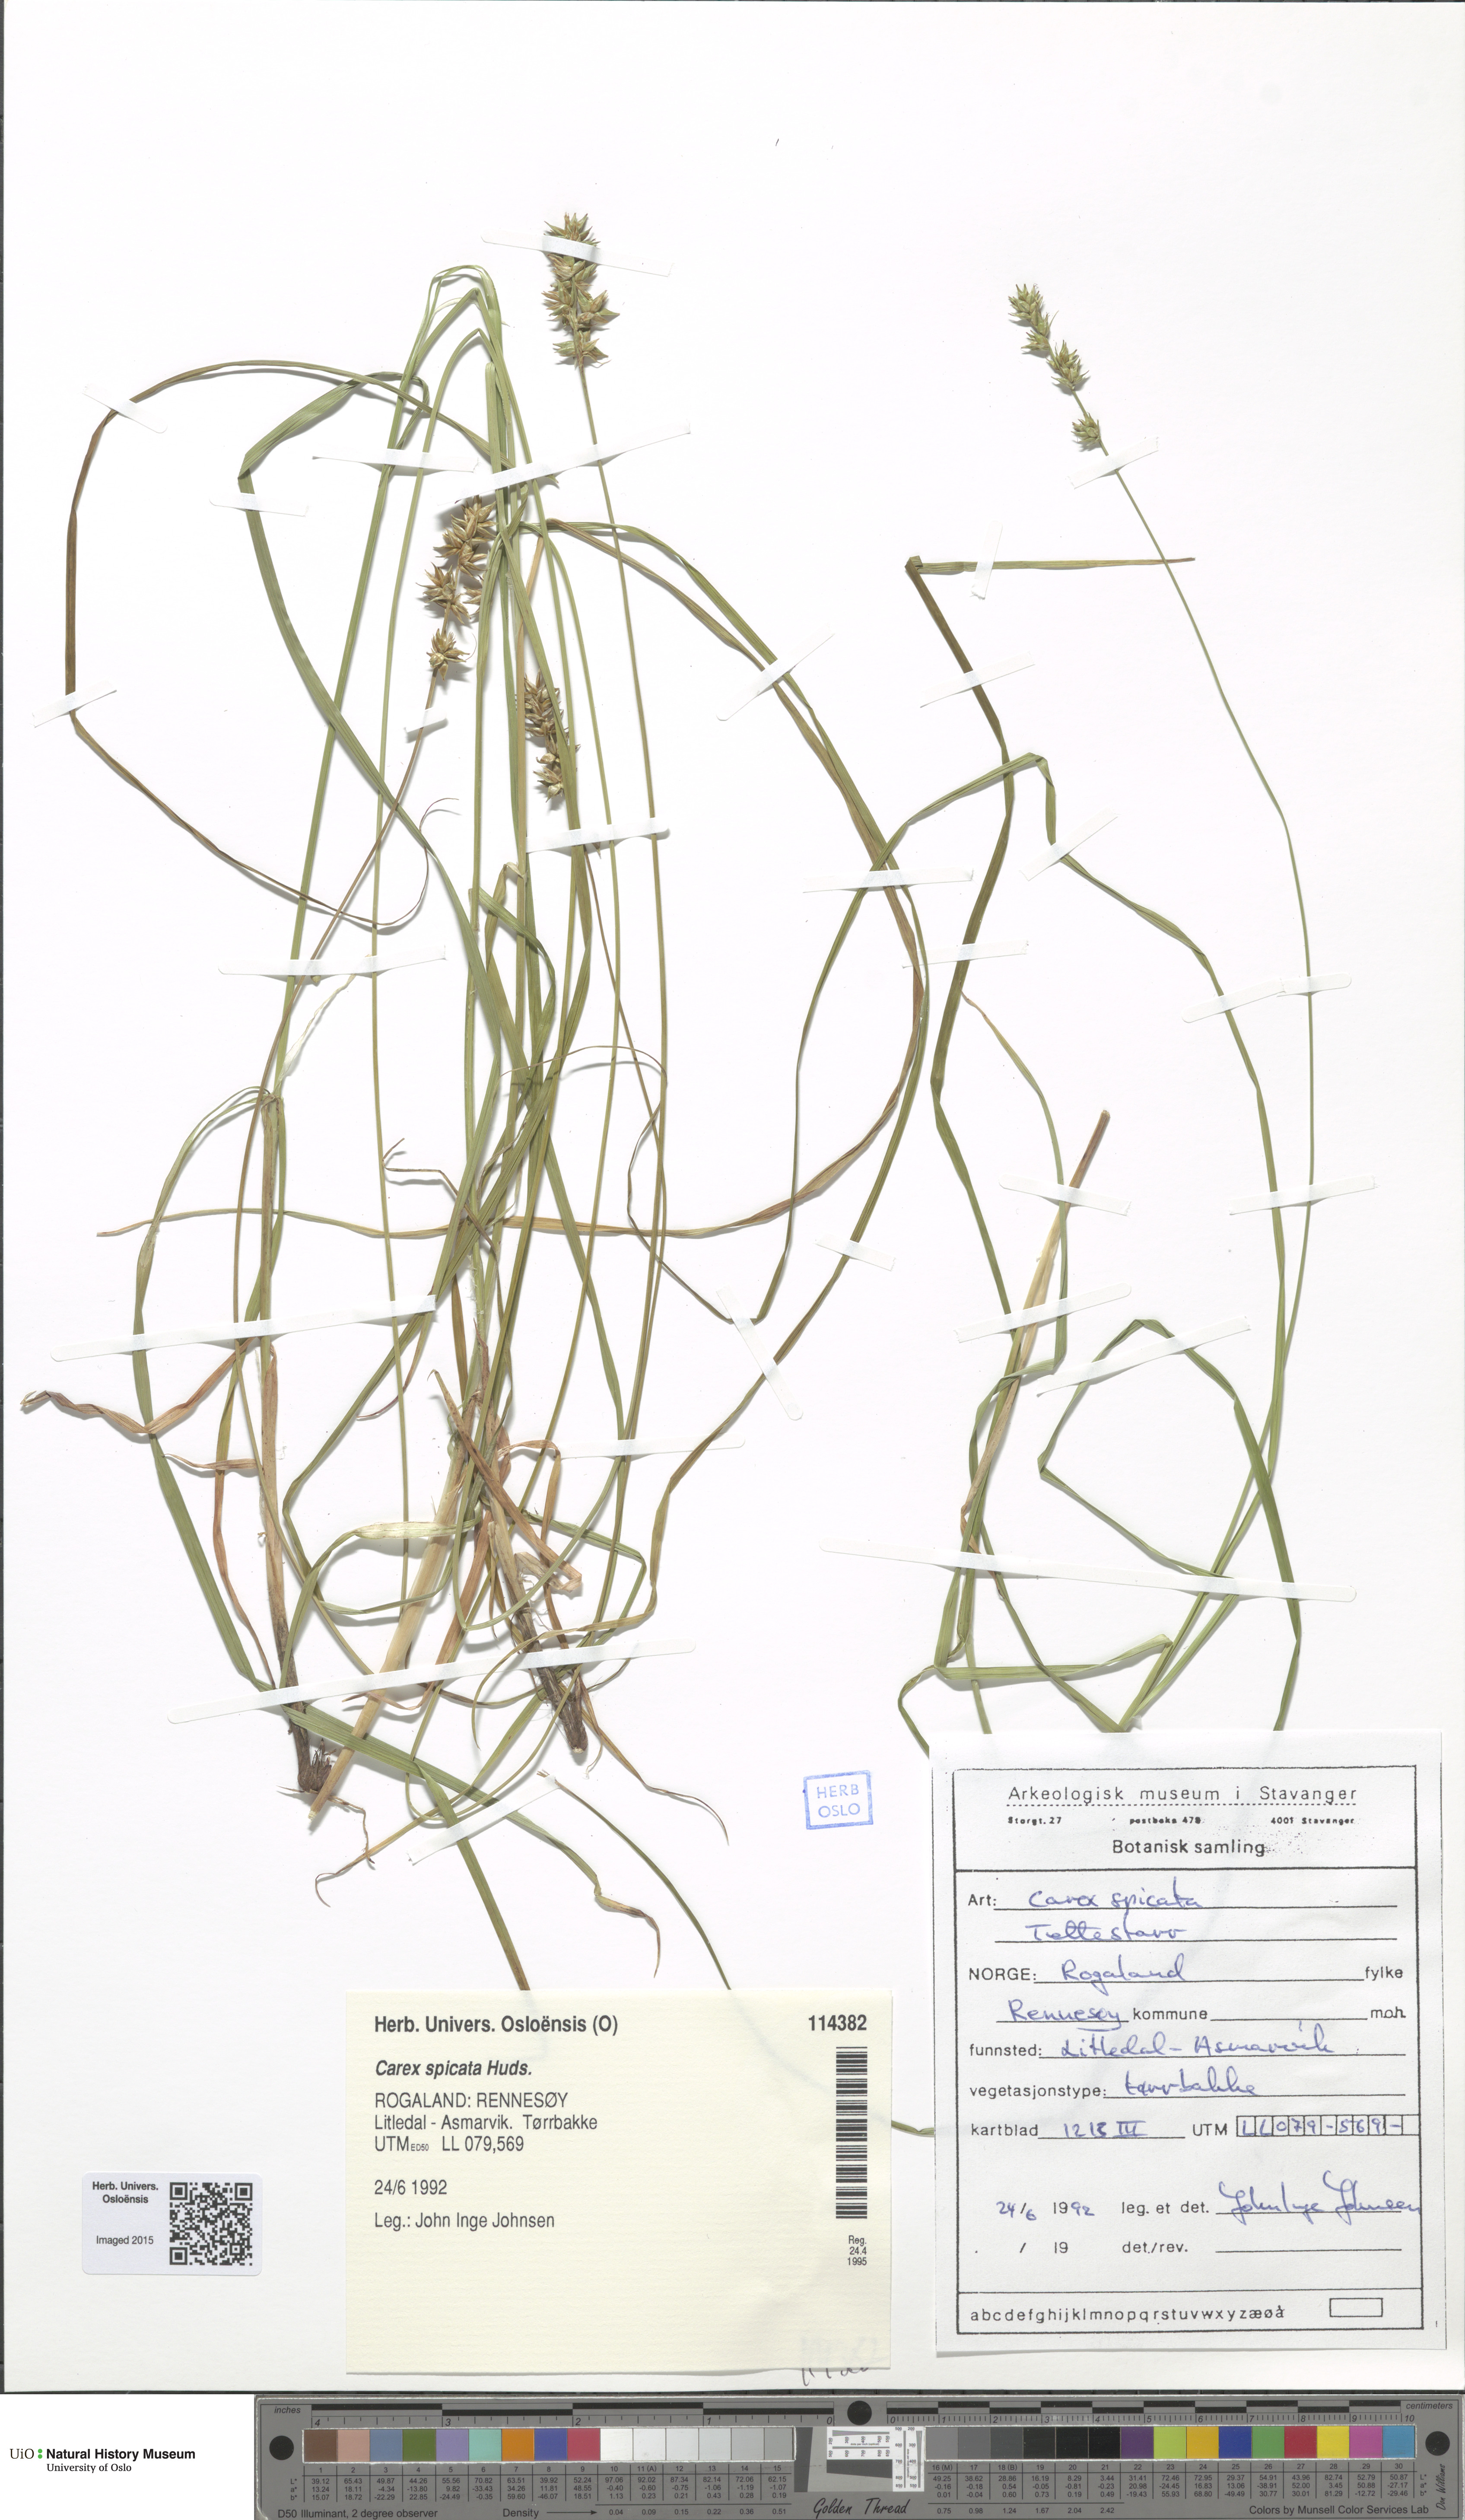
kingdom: Plantae
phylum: Tracheophyta
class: Liliopsida
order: Poales
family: Cyperaceae
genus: Carex
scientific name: Carex spicata
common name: Spiked sedge
